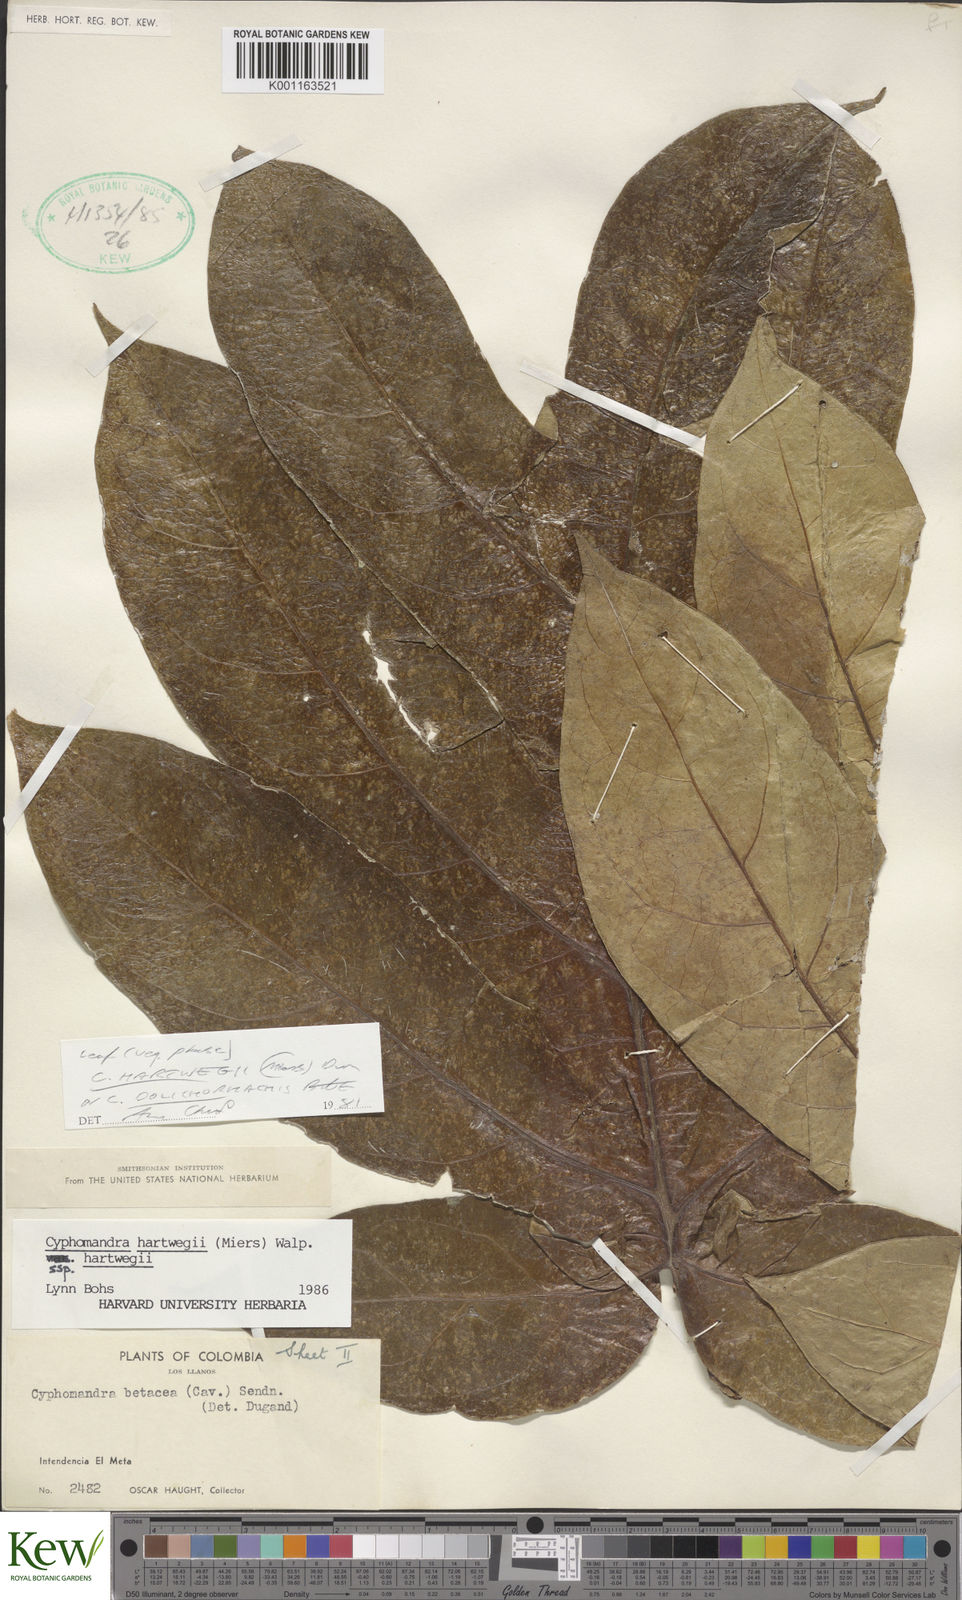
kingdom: Plantae
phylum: Tracheophyta
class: Magnoliopsida
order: Solanales
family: Solanaceae
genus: Solanum
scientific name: Solanum splendens
